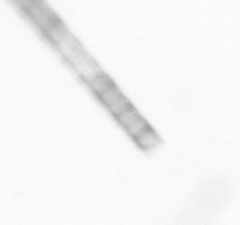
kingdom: Chromista
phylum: Ochrophyta
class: Bacillariophyceae
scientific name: Bacillariophyceae
